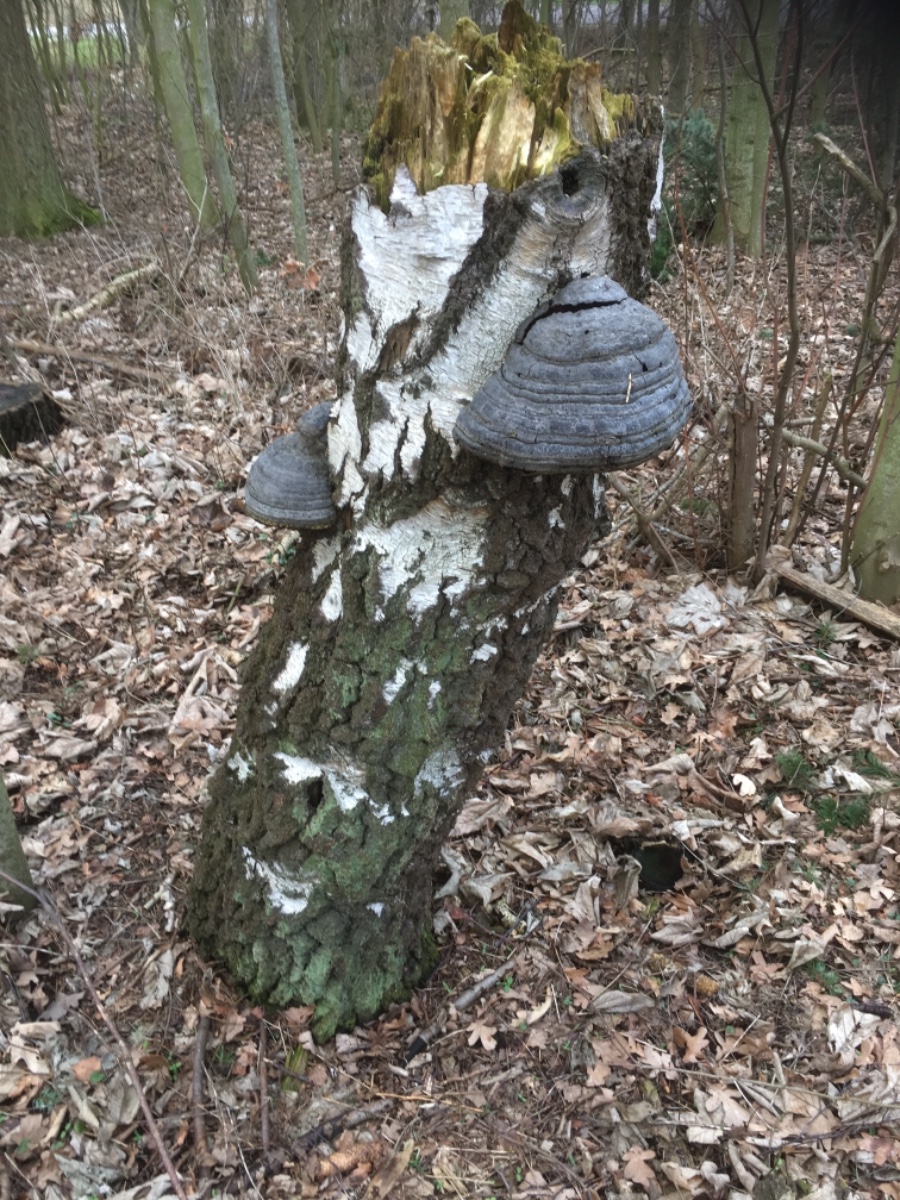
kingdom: Fungi
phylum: Basidiomycota
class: Agaricomycetes
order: Polyporales
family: Polyporaceae
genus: Fomes
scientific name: Fomes fomentarius
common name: tøndersvamp
